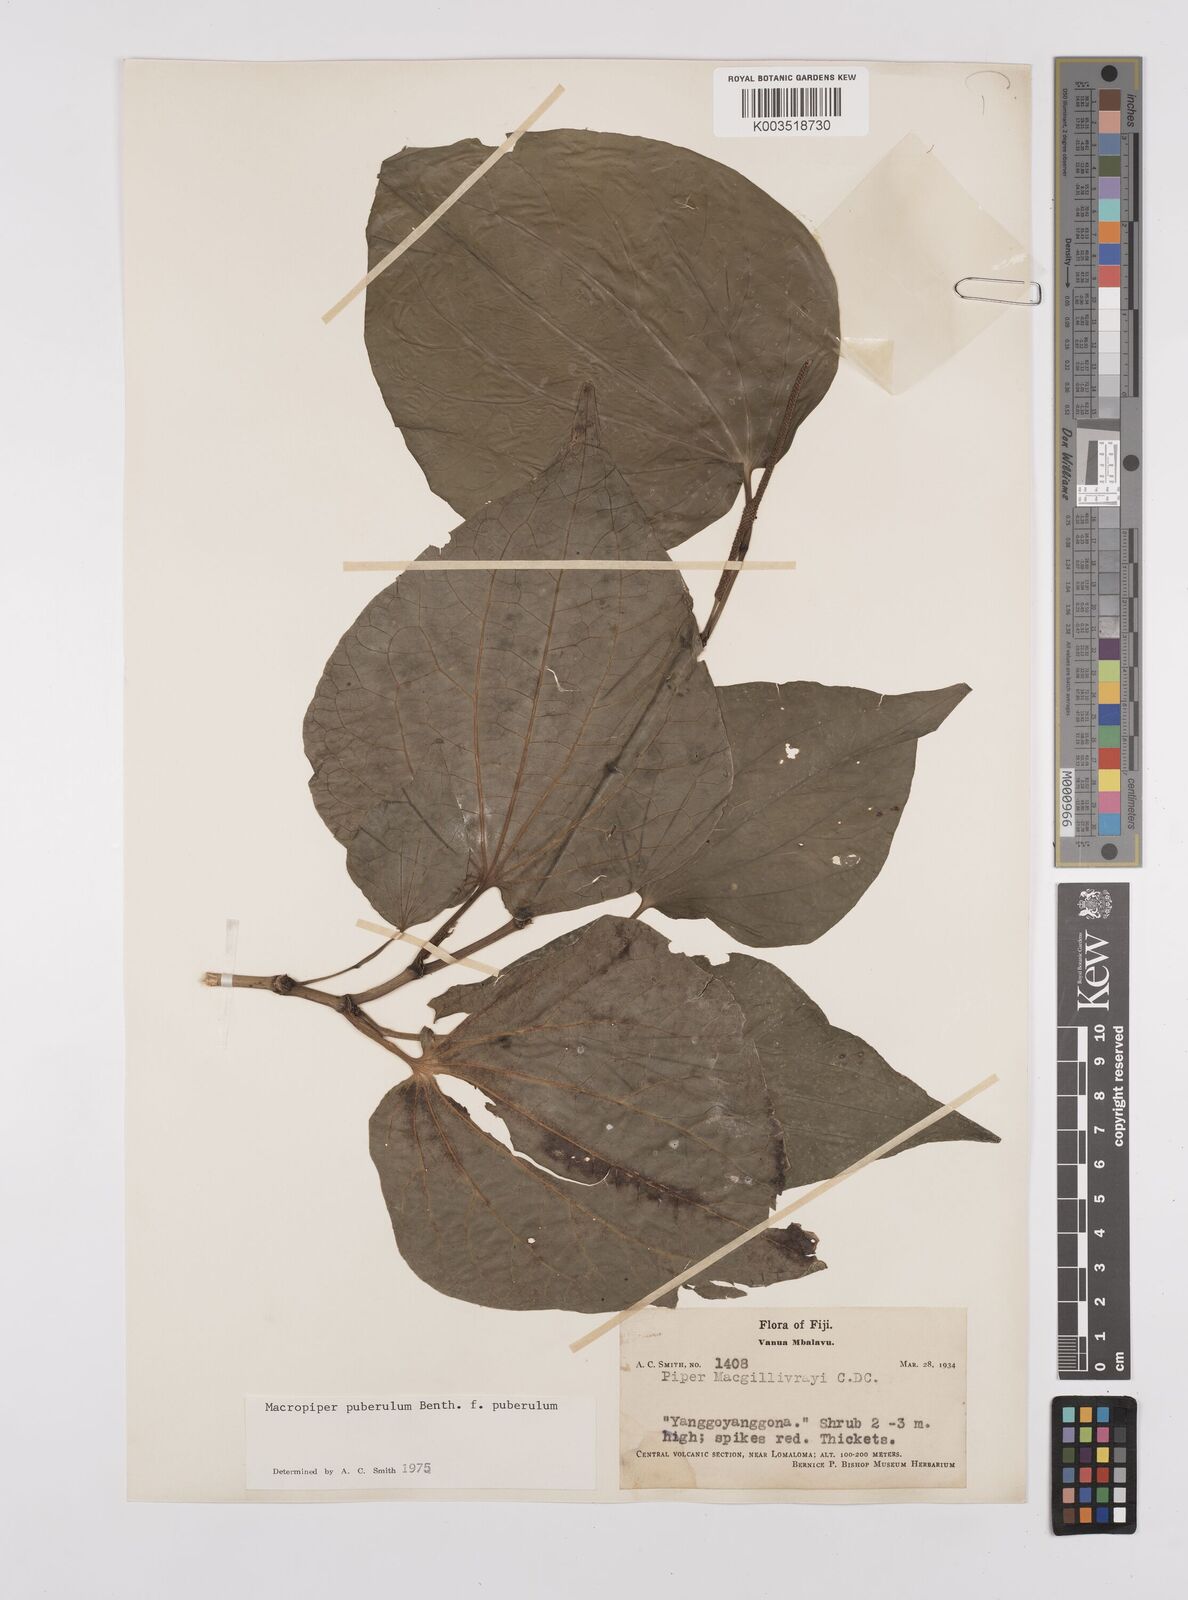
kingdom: Plantae
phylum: Tracheophyta
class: Magnoliopsida
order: Piperales
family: Piperaceae
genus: Macropiper
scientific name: Macropiper puberulum
